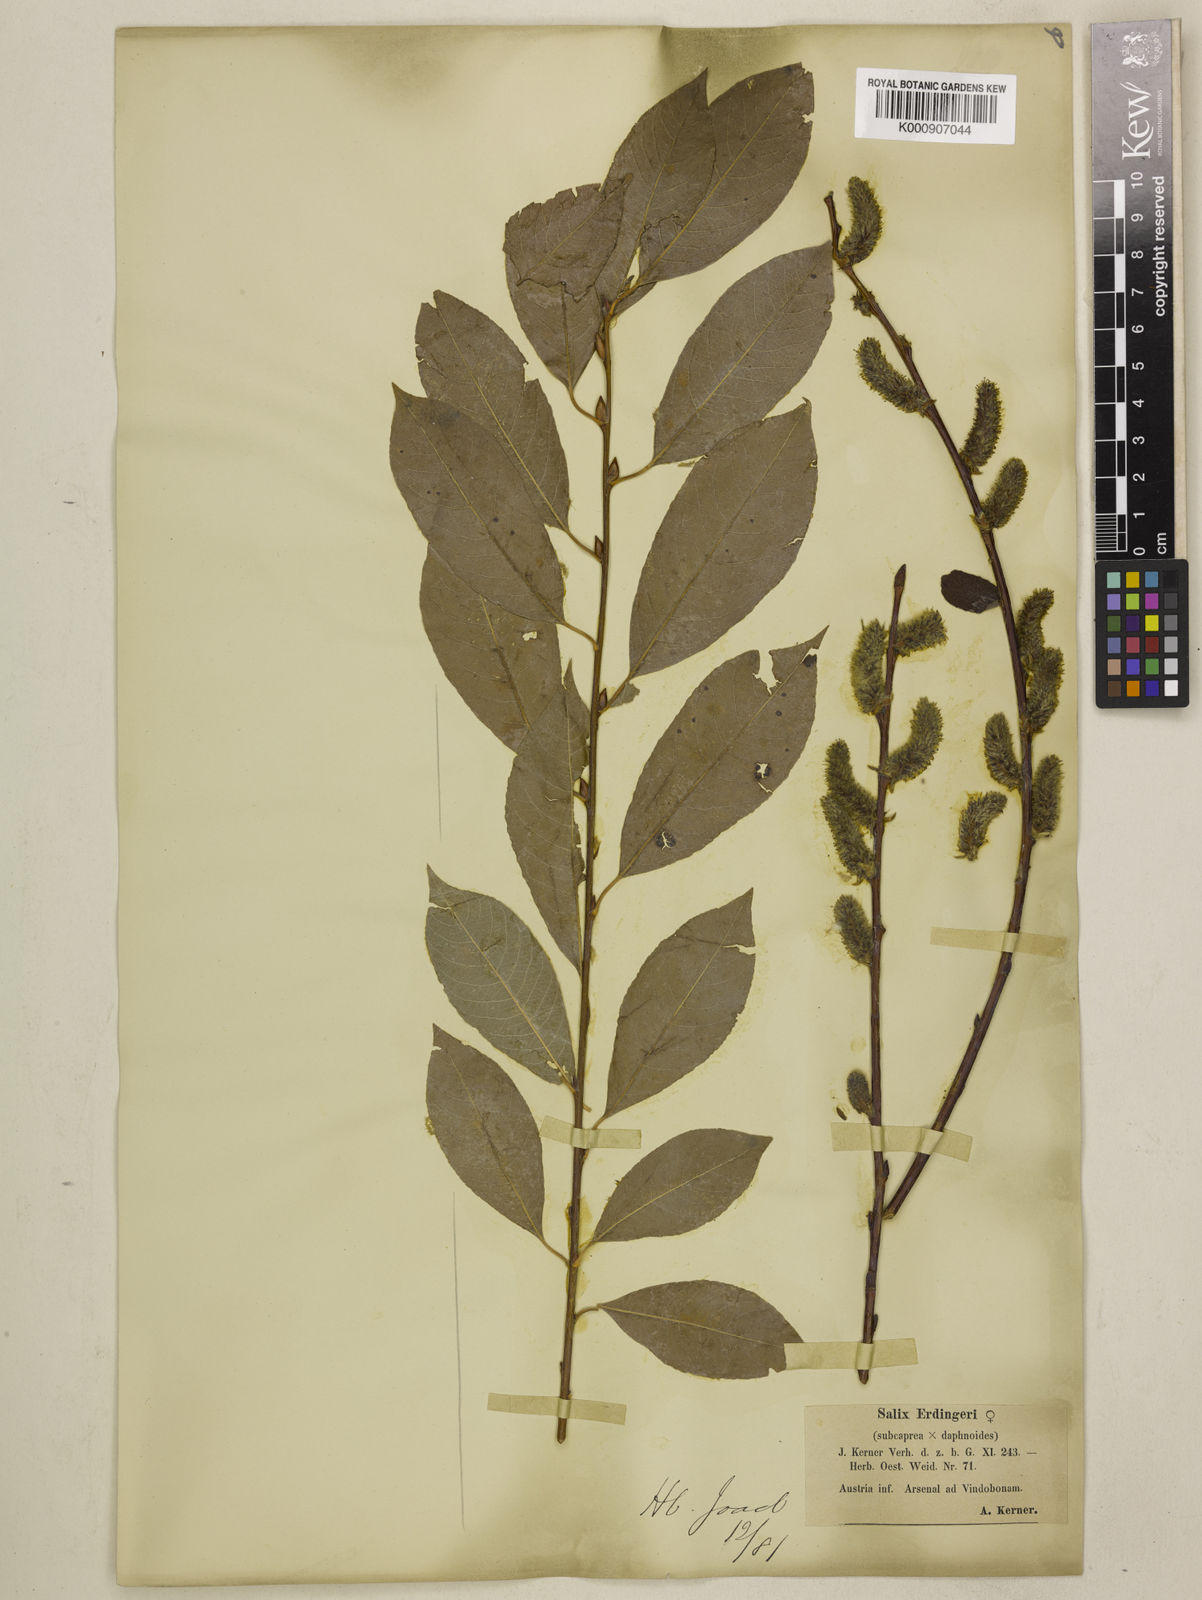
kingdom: Plantae
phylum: Tracheophyta
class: Magnoliopsida
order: Malpighiales
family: Salicaceae
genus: Salix
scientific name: Salix caprea
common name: Goat willow
